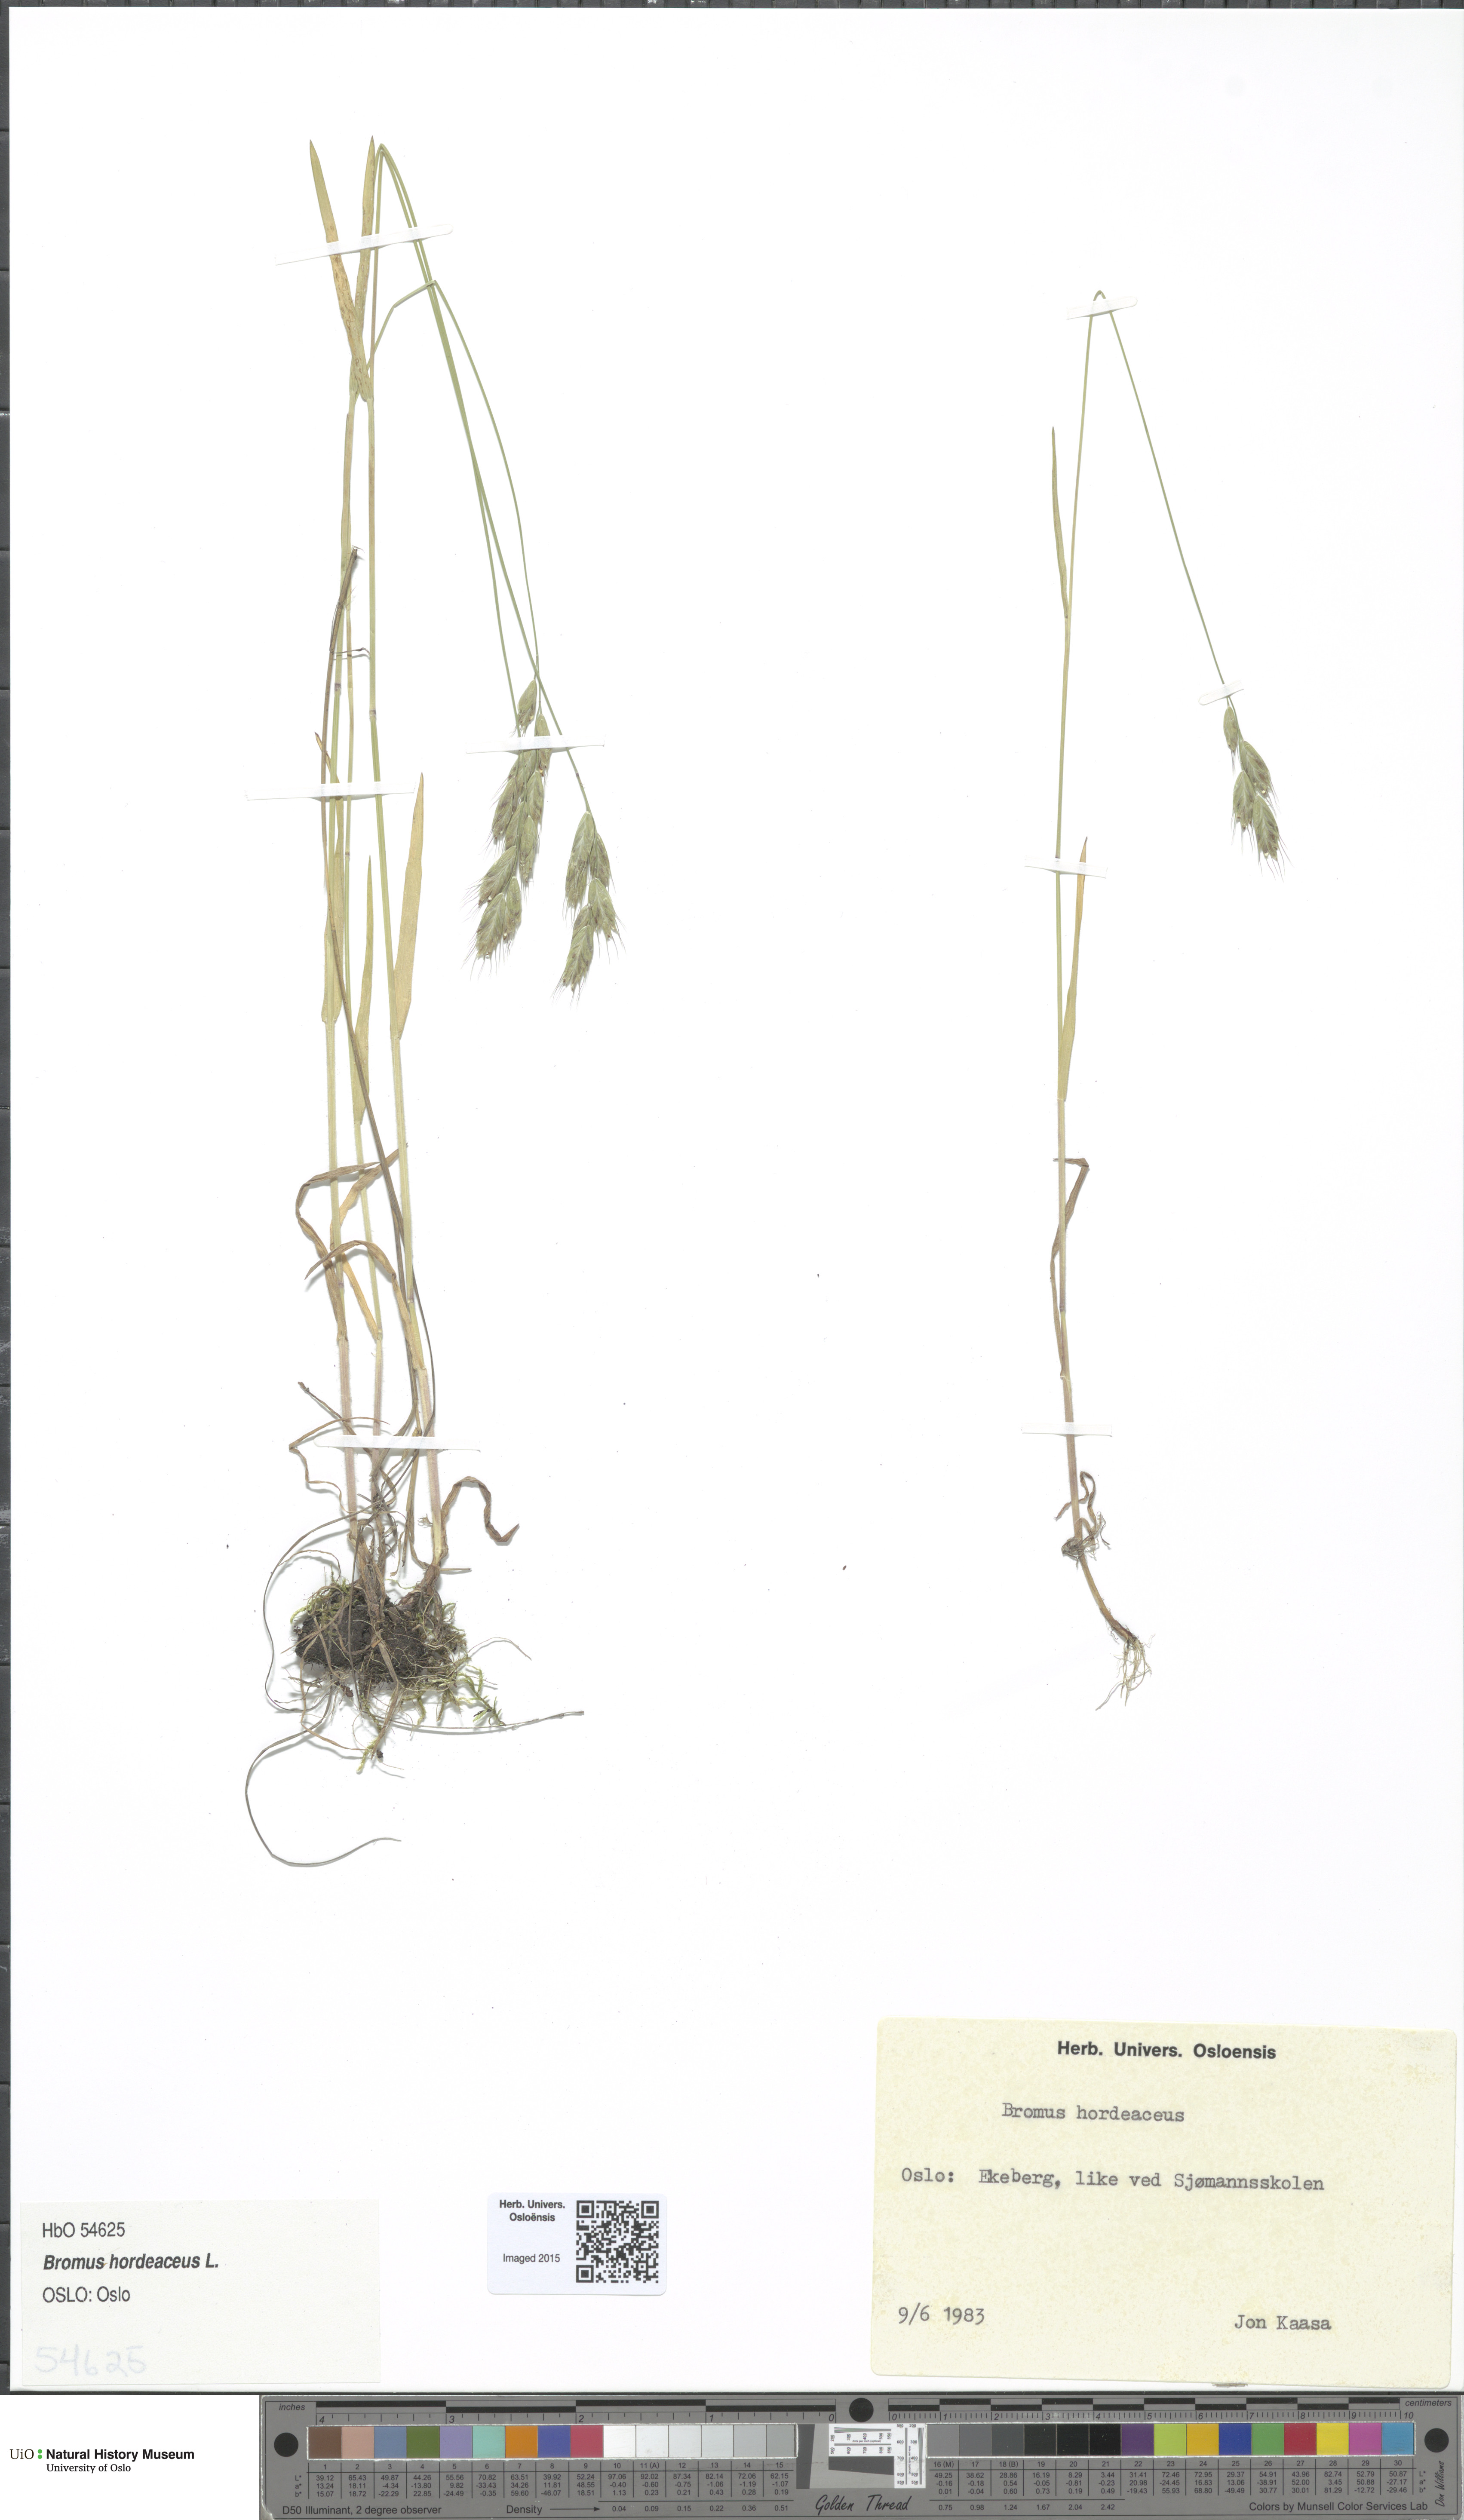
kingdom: Plantae
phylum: Tracheophyta
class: Liliopsida
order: Poales
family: Poaceae
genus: Bromus
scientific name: Bromus hordeaceus
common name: Soft brome
